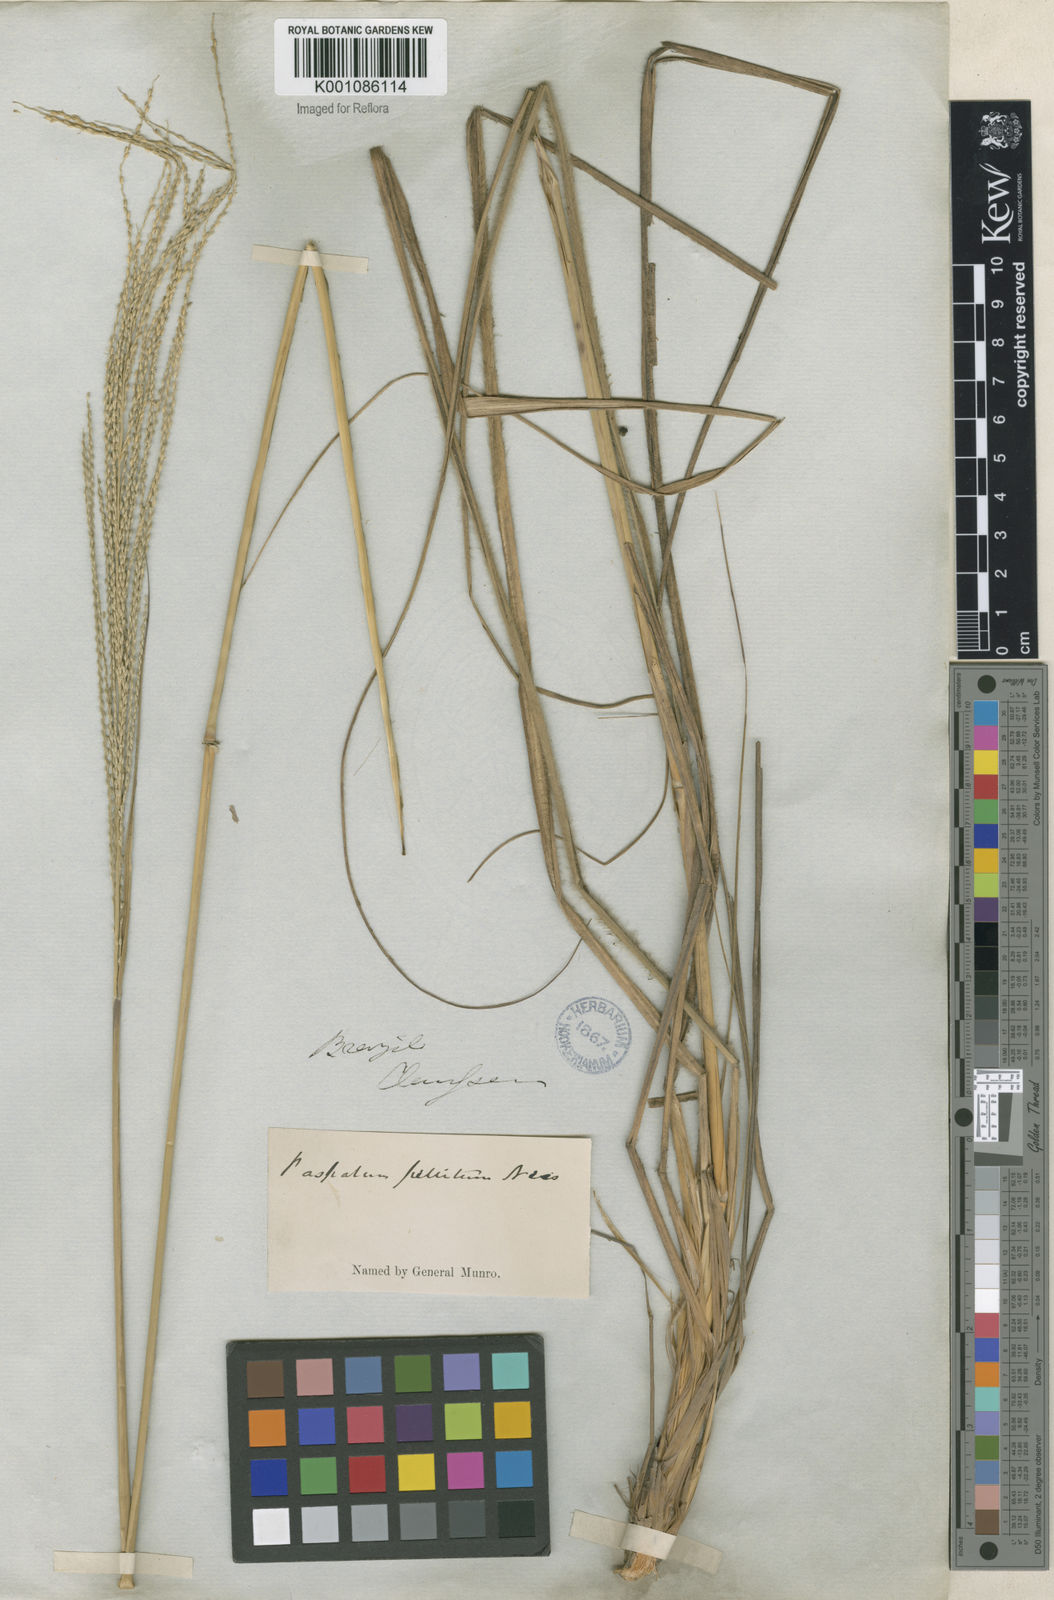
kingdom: Plantae
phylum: Tracheophyta
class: Liliopsida
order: Poales
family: Poaceae
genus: Axonopus
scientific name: Axonopus siccus
